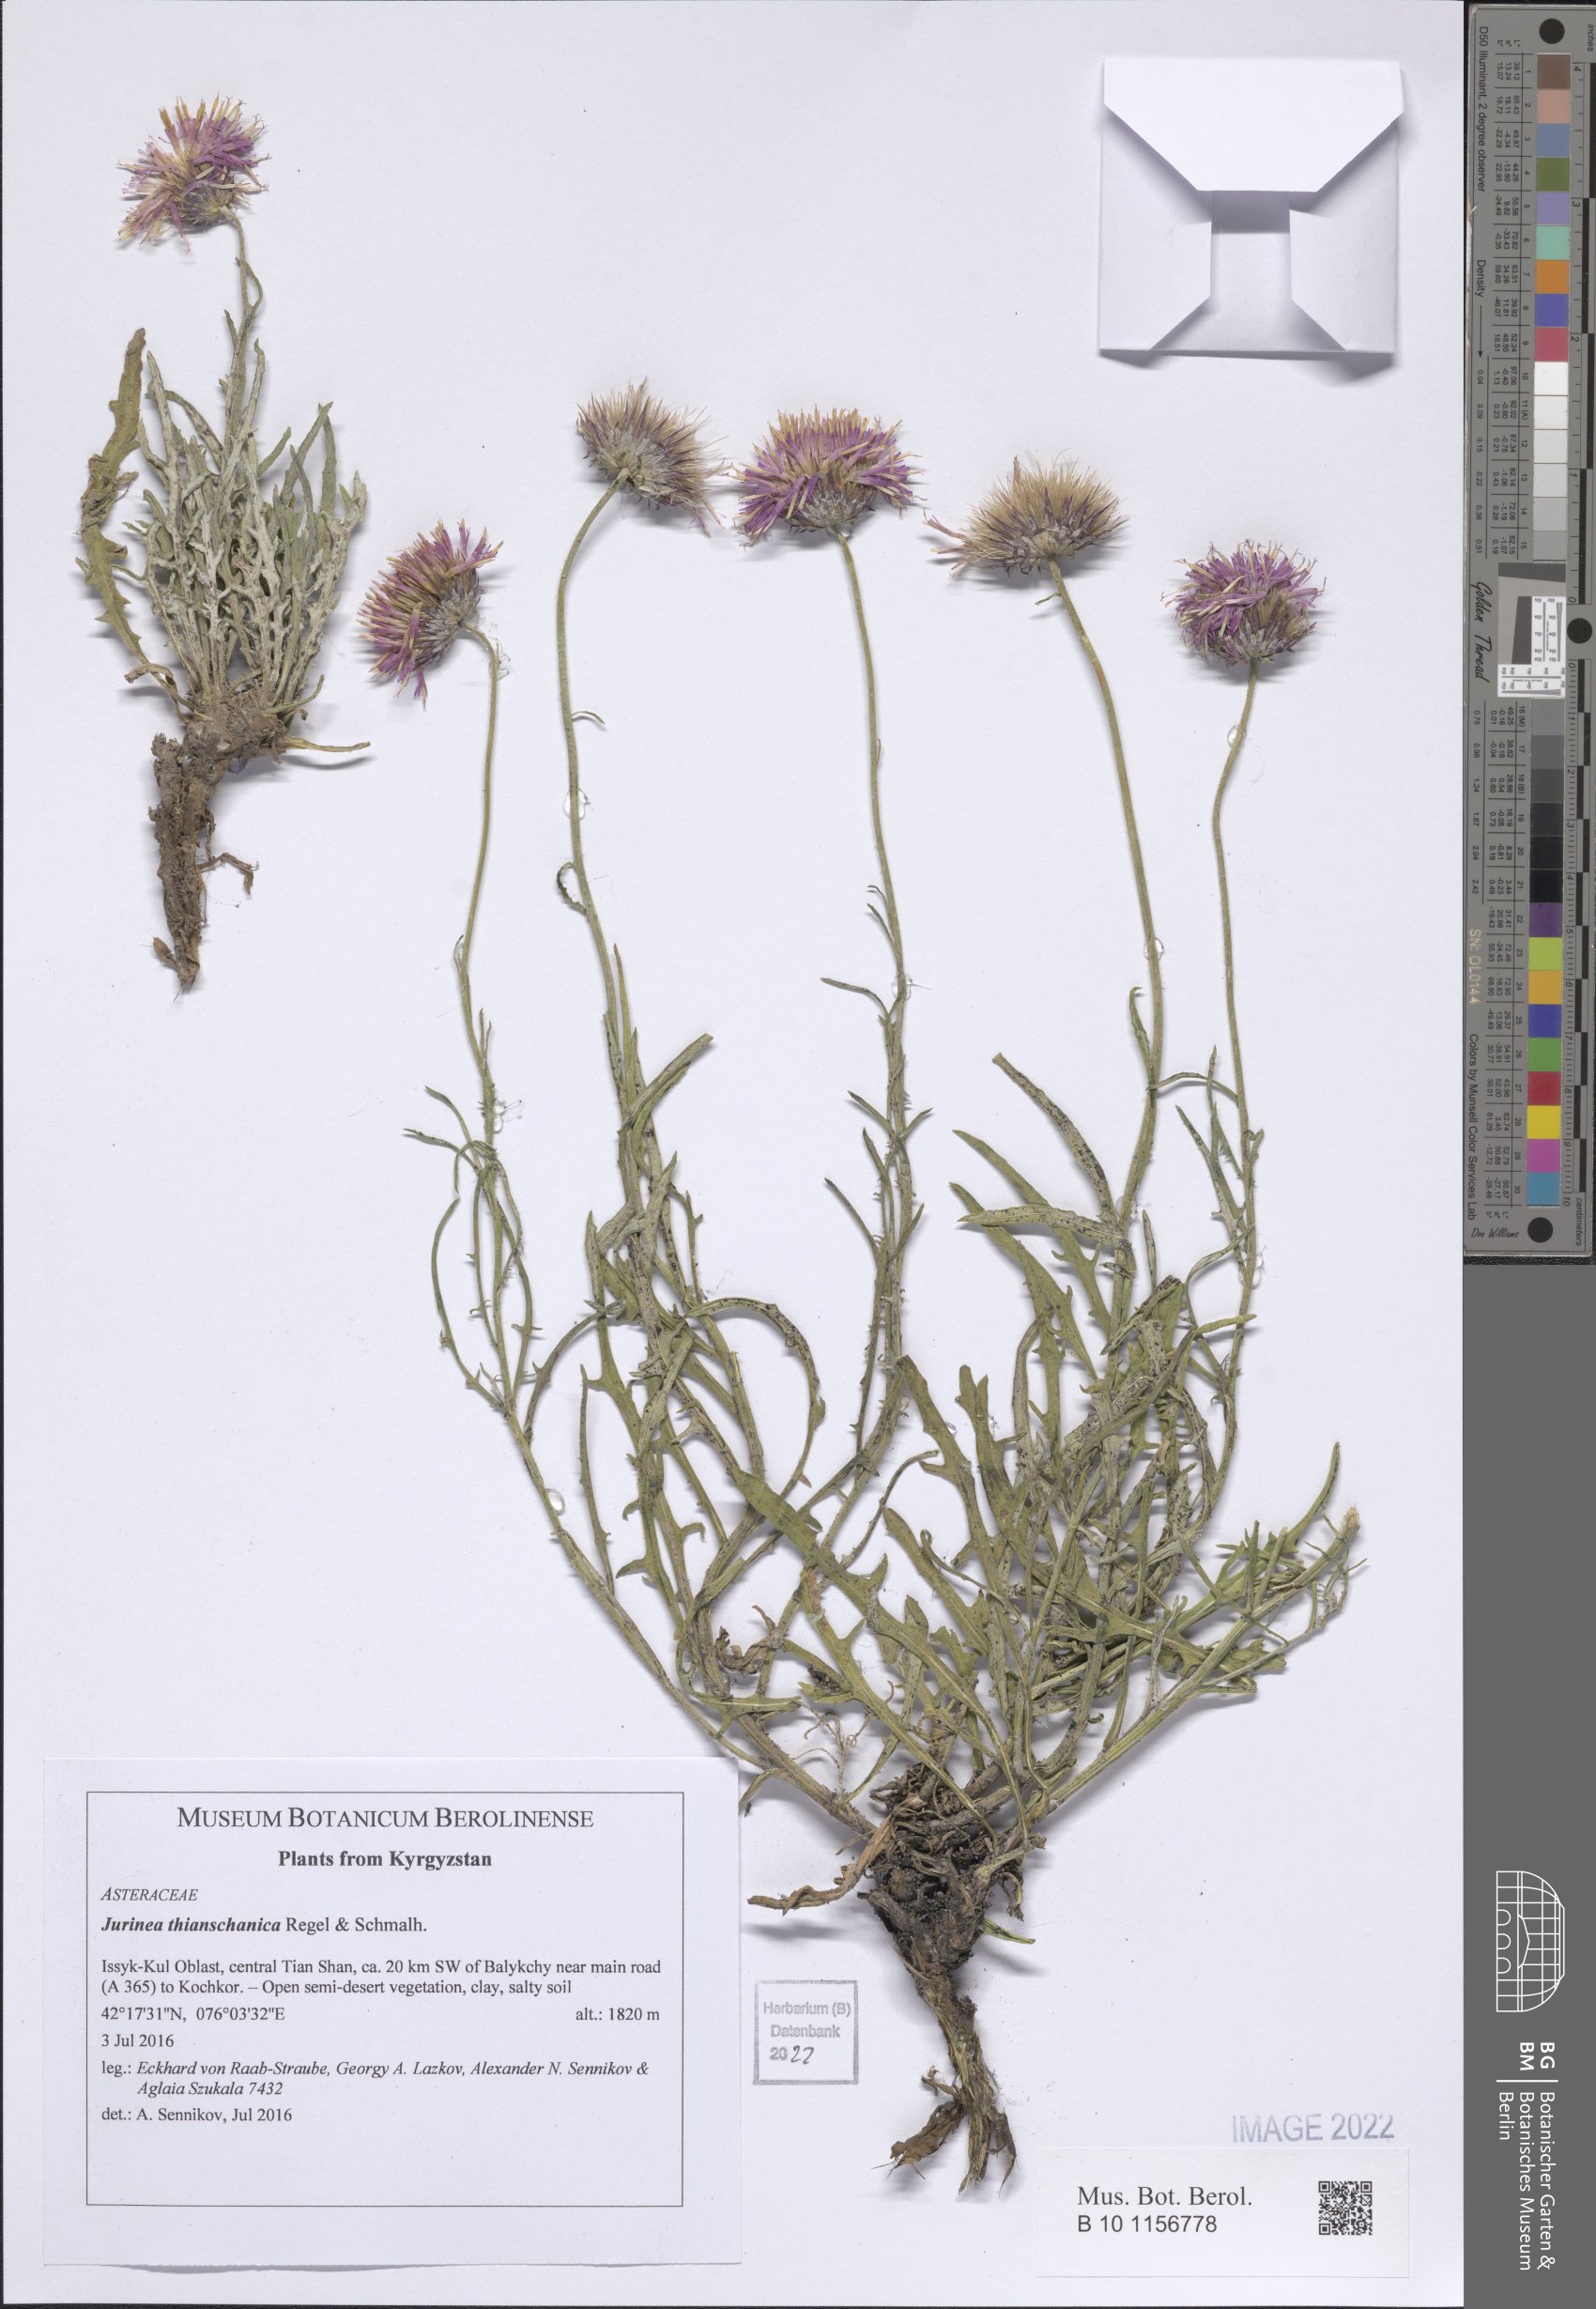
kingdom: Plantae
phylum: Tracheophyta
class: Magnoliopsida
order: Asterales
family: Asteraceae
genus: Jurinea
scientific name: Jurinea thianschanica
